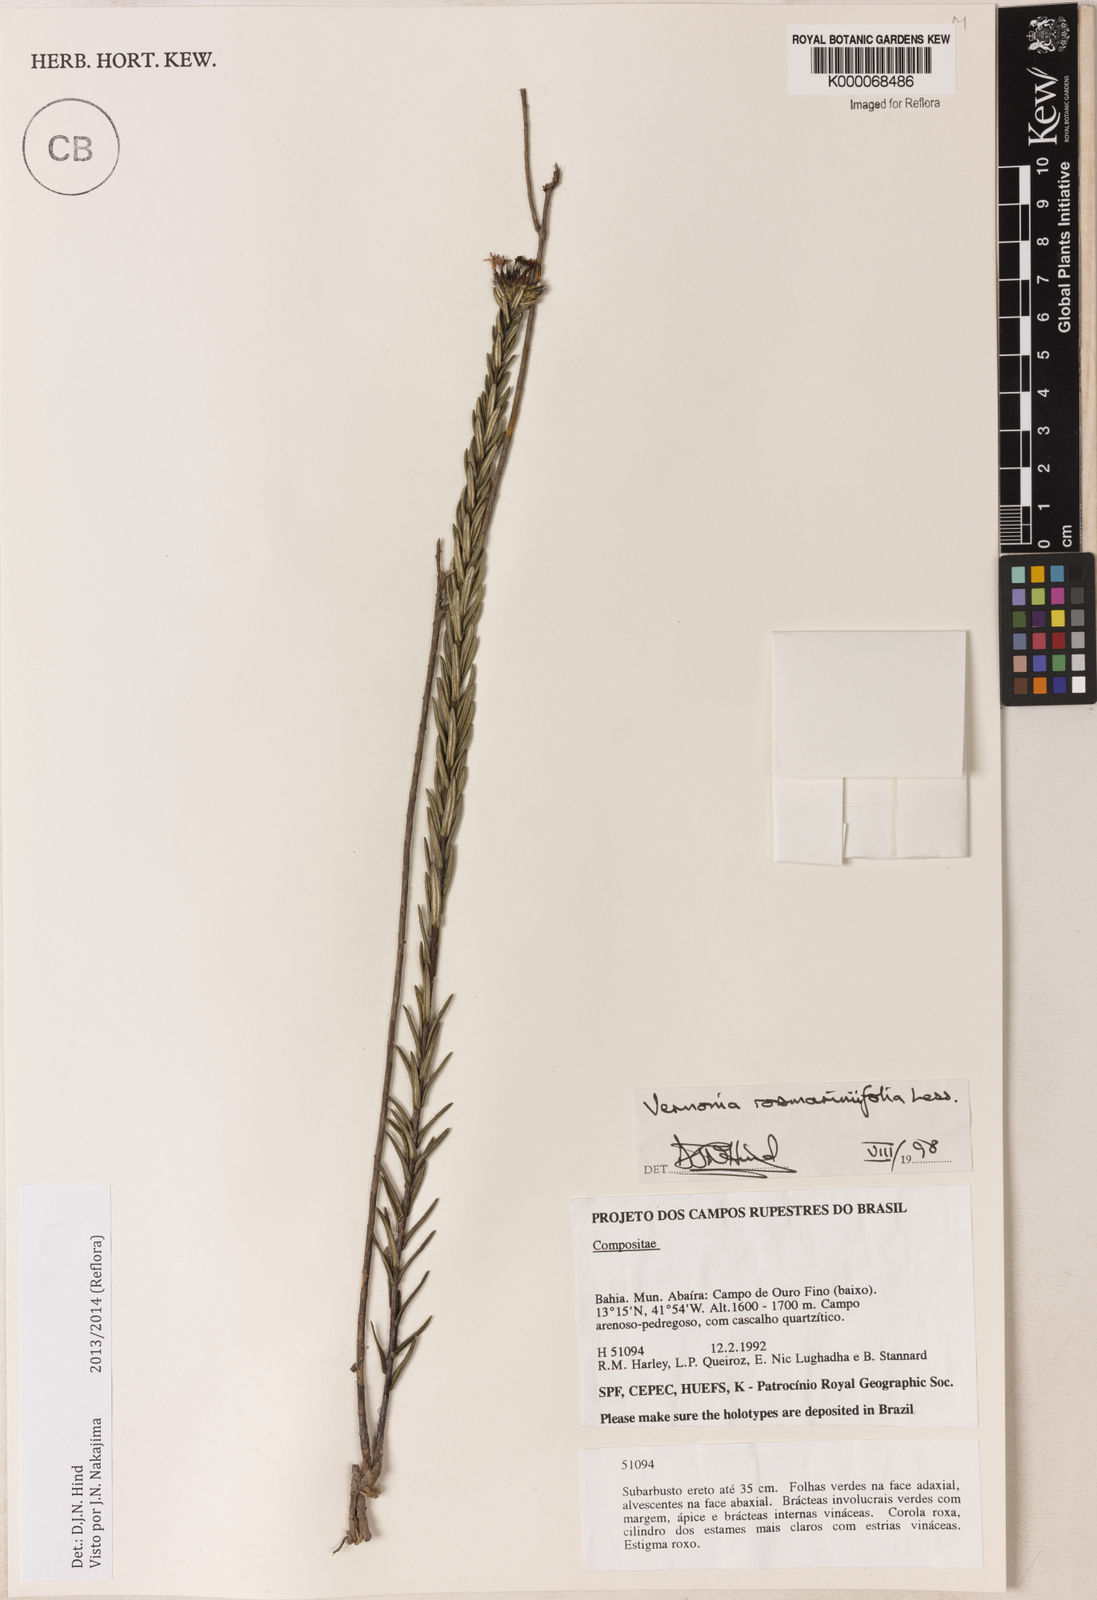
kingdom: Plantae
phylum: Tracheophyta
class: Magnoliopsida
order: Asterales
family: Asteraceae
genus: Lessingianthus
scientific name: Lessingianthus rosmarinifolius
